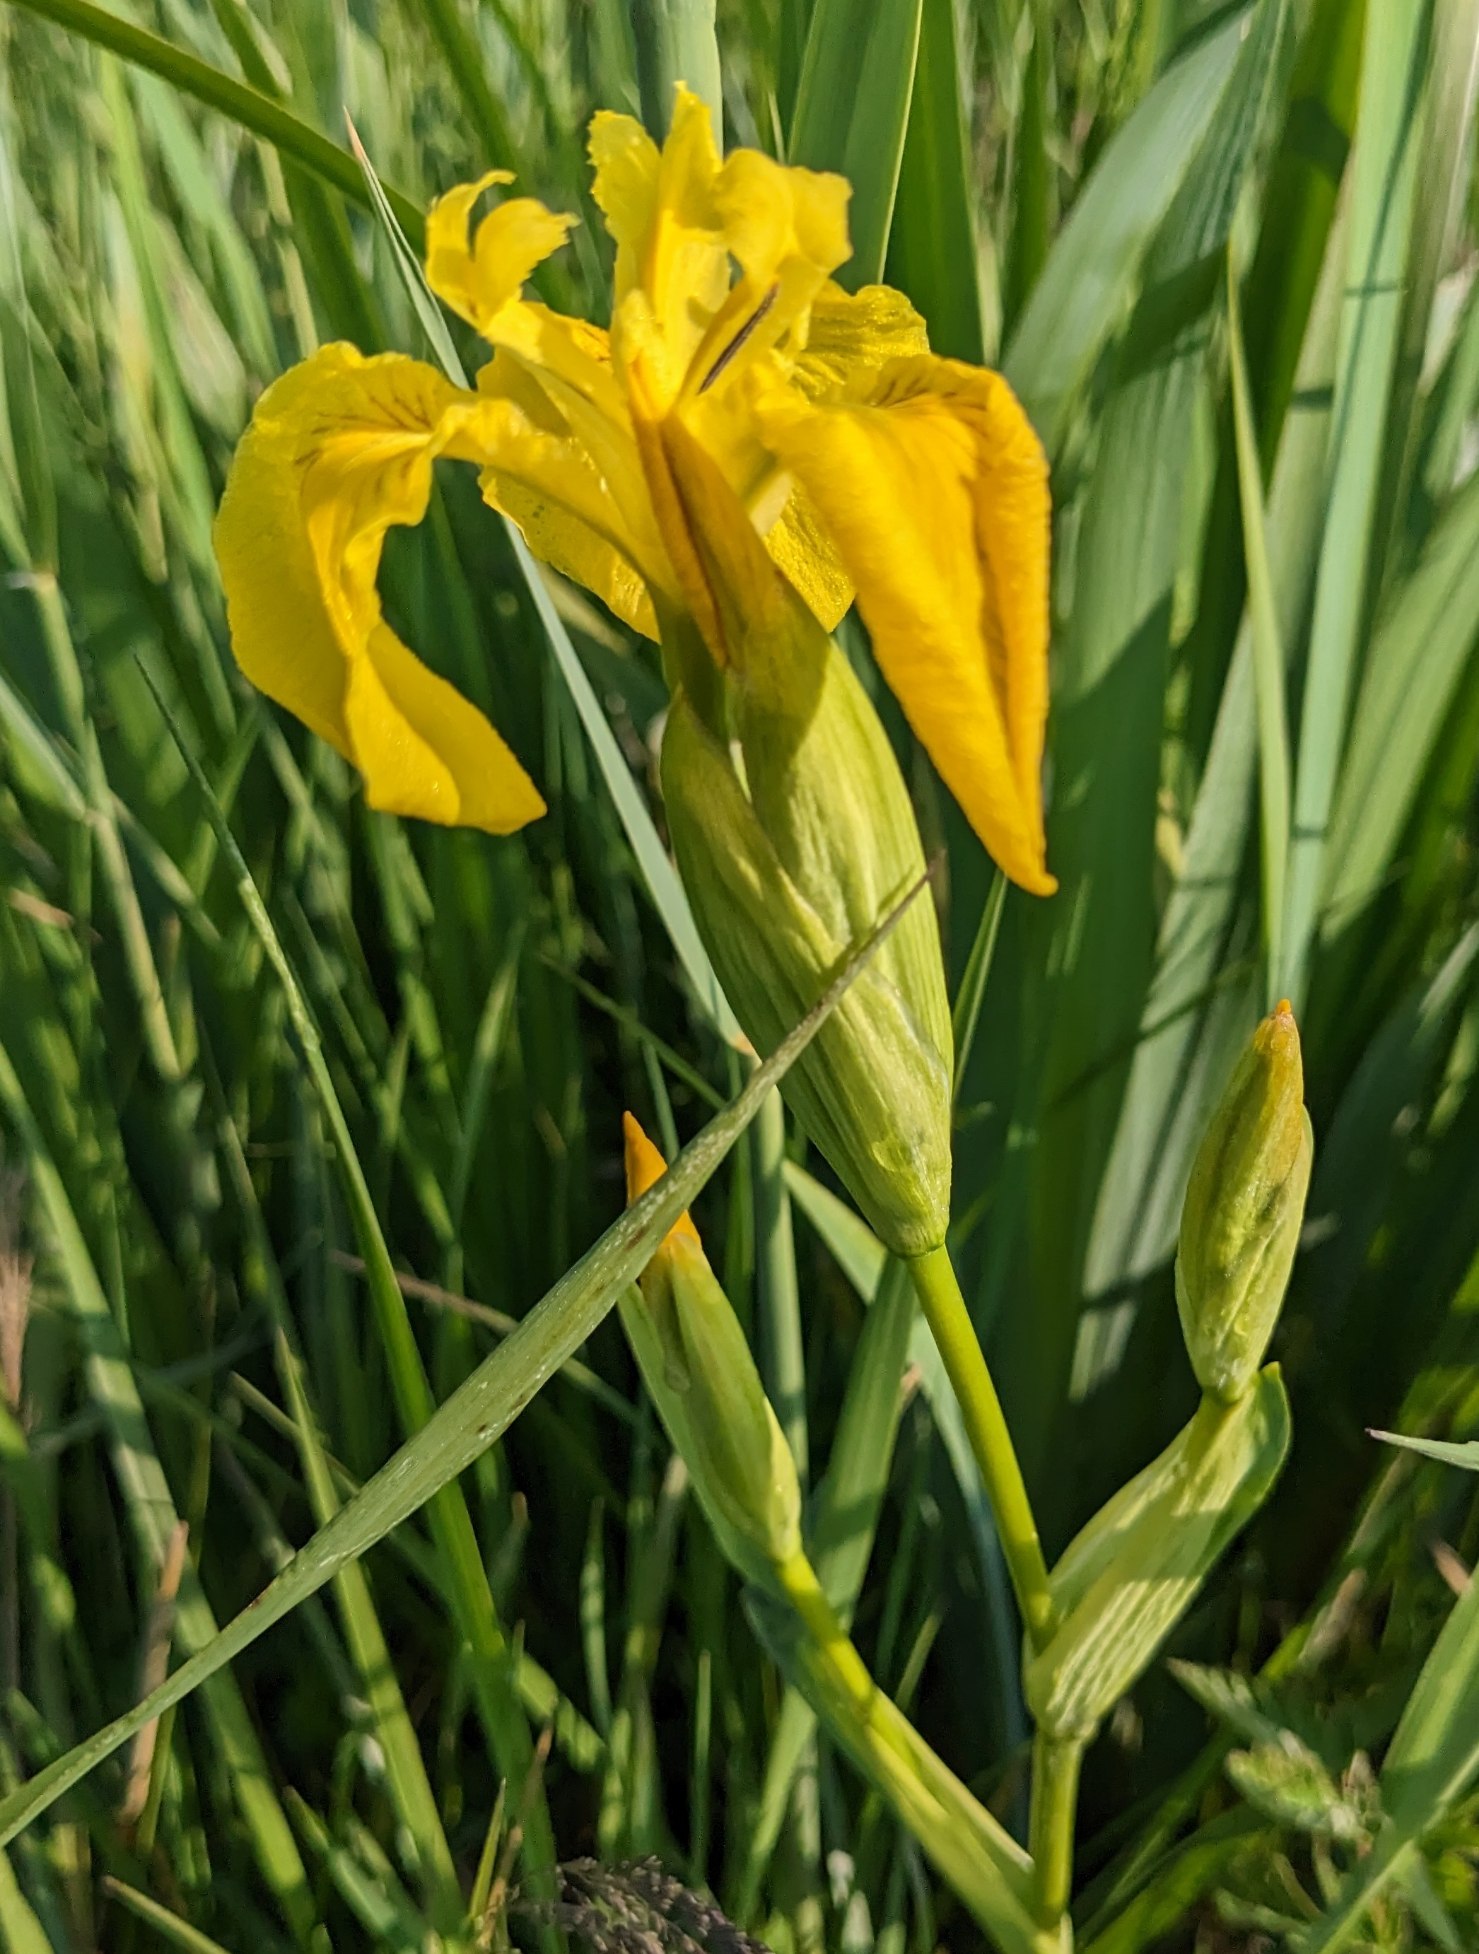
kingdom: Plantae
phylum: Tracheophyta
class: Liliopsida
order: Asparagales
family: Iridaceae
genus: Iris
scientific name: Iris pseudacorus
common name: Gul iris
